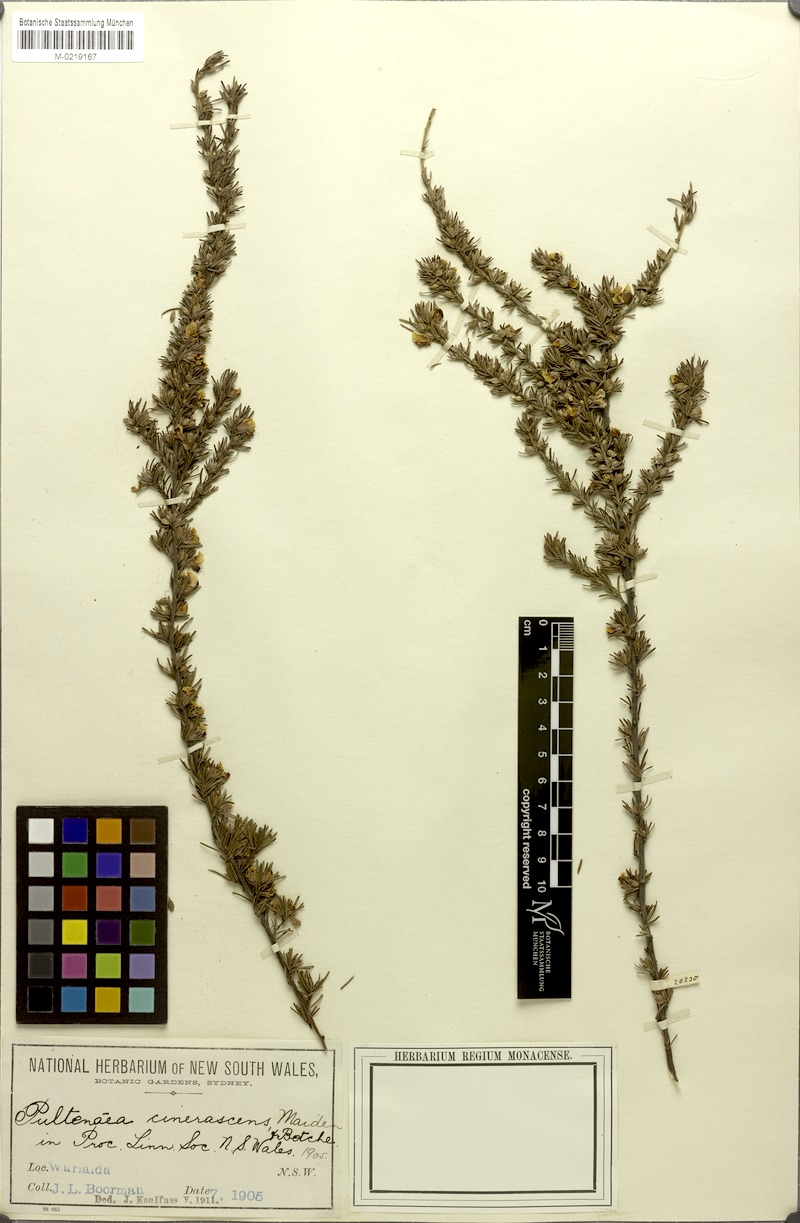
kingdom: Plantae
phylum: Tracheophyta
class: Magnoliopsida
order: Fabales
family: Fabaceae
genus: Pultenaea
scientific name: Pultenaea cinerascens
